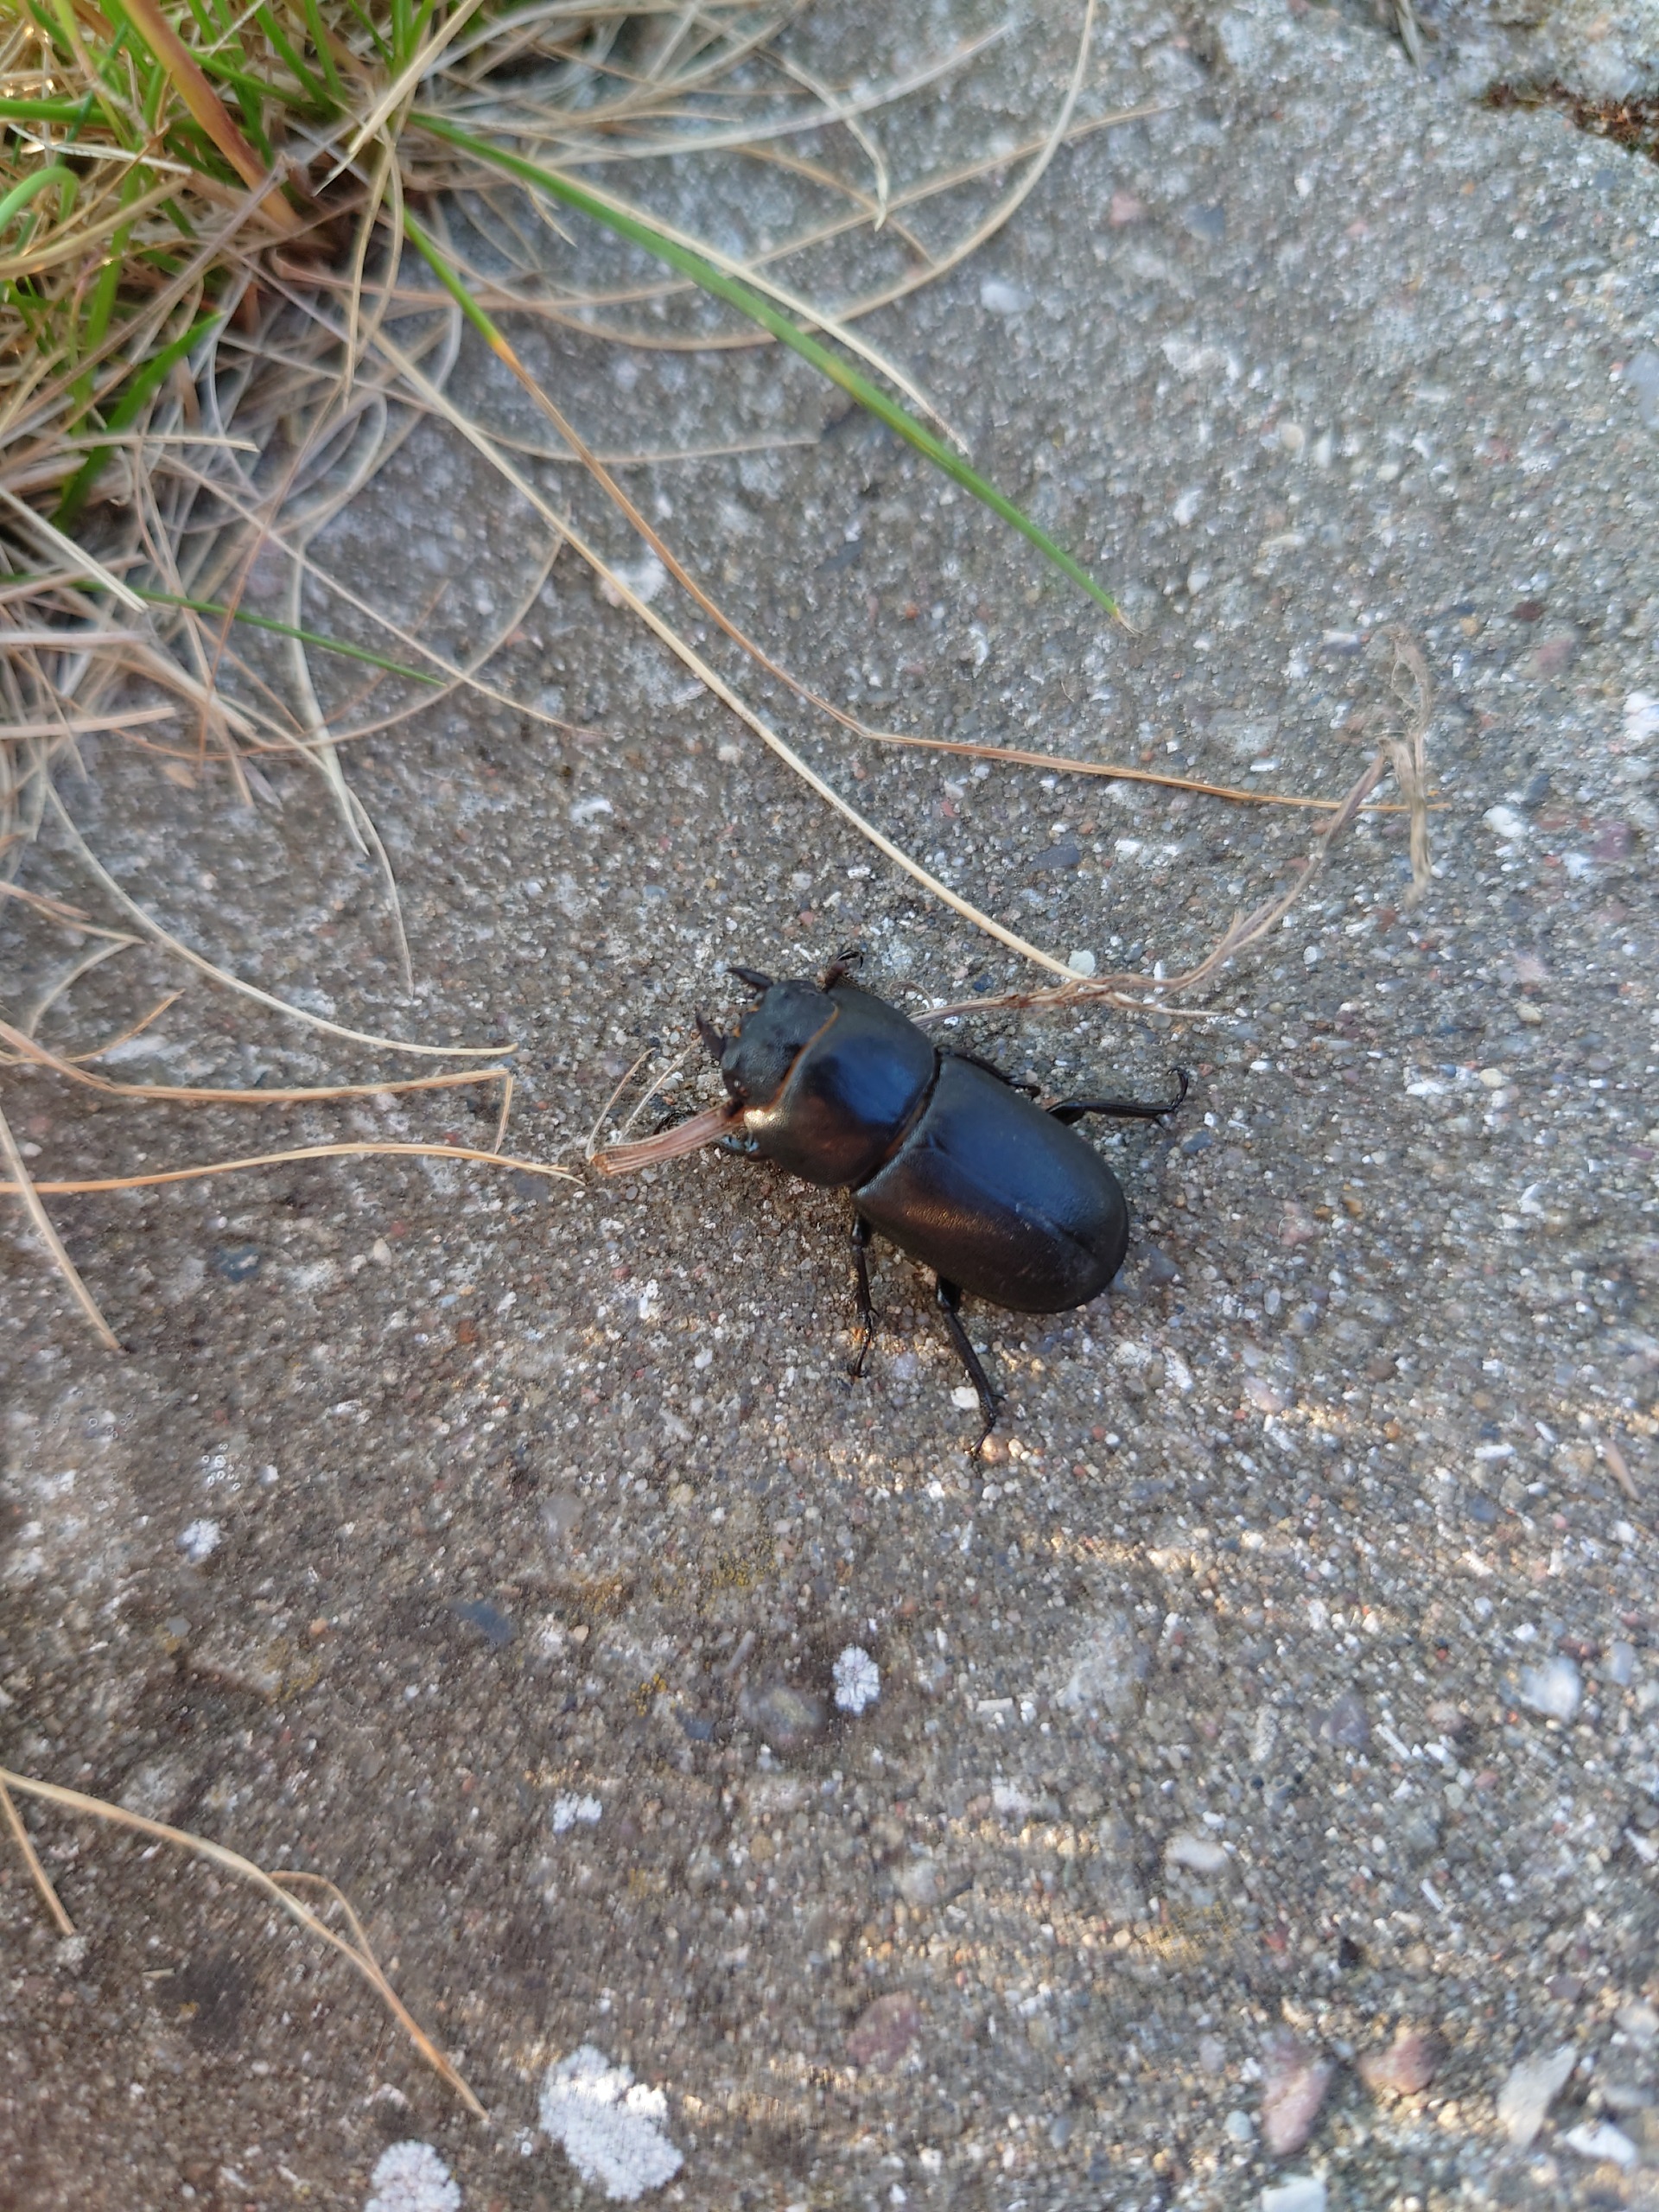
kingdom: Animalia
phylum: Arthropoda
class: Insecta
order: Coleoptera
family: Lucanidae
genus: Dorcus
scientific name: Dorcus parallelipipedus
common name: Bøghjort
